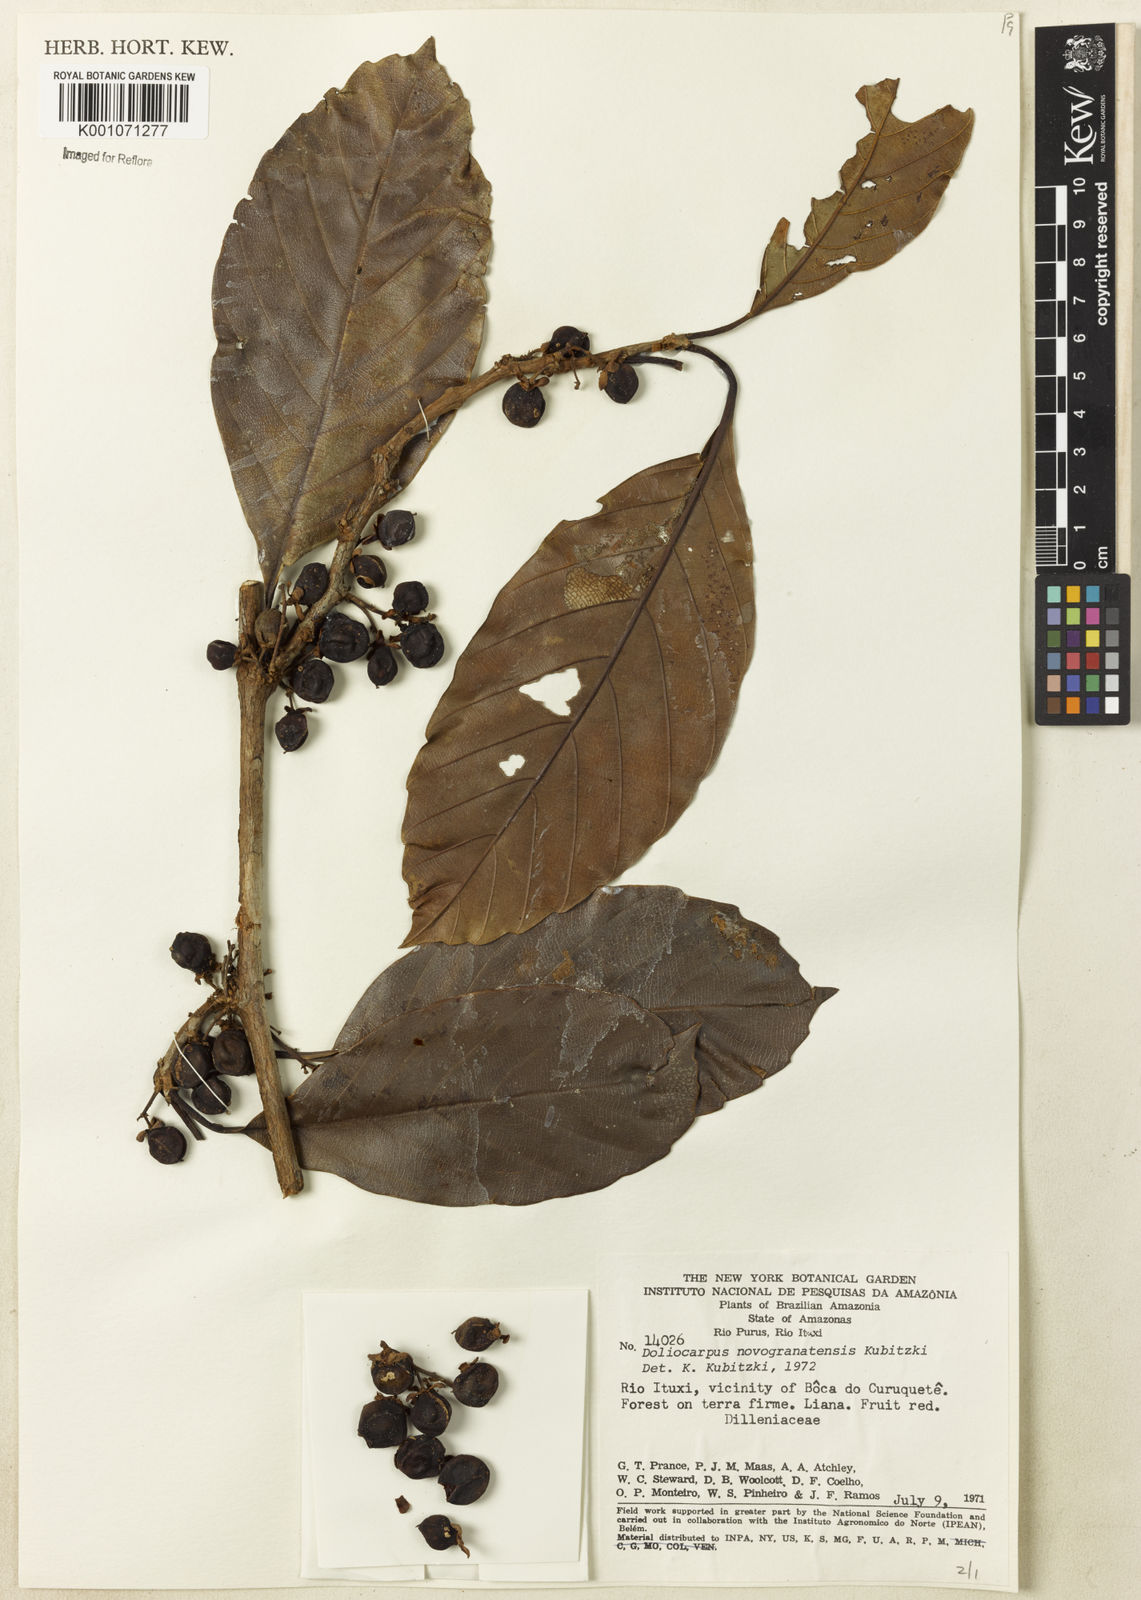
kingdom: Plantae
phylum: Tracheophyta
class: Magnoliopsida
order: Dilleniales
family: Dilleniaceae
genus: Doliocarpus
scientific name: Doliocarpus novogranatensis
